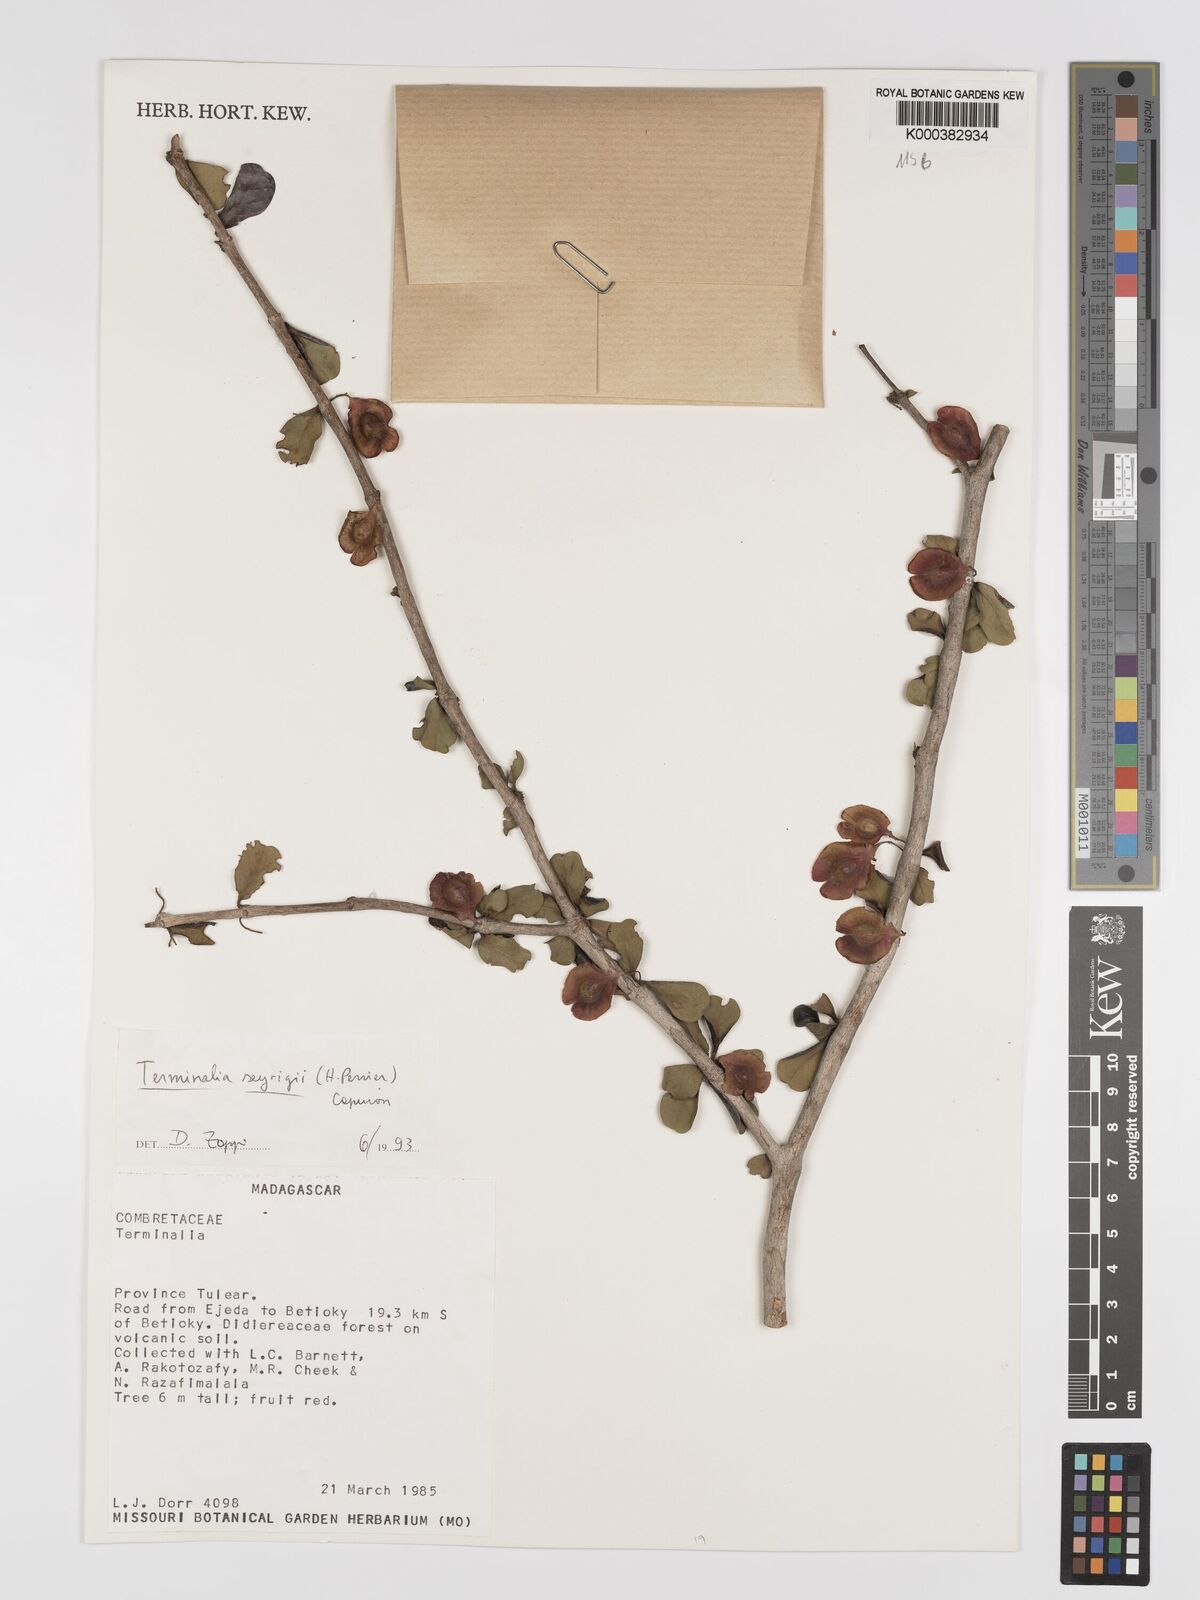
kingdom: Plantae
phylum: Tracheophyta
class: Magnoliopsida
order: Myrtales
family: Combretaceae
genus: Terminalia
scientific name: Terminalia seyrigii
